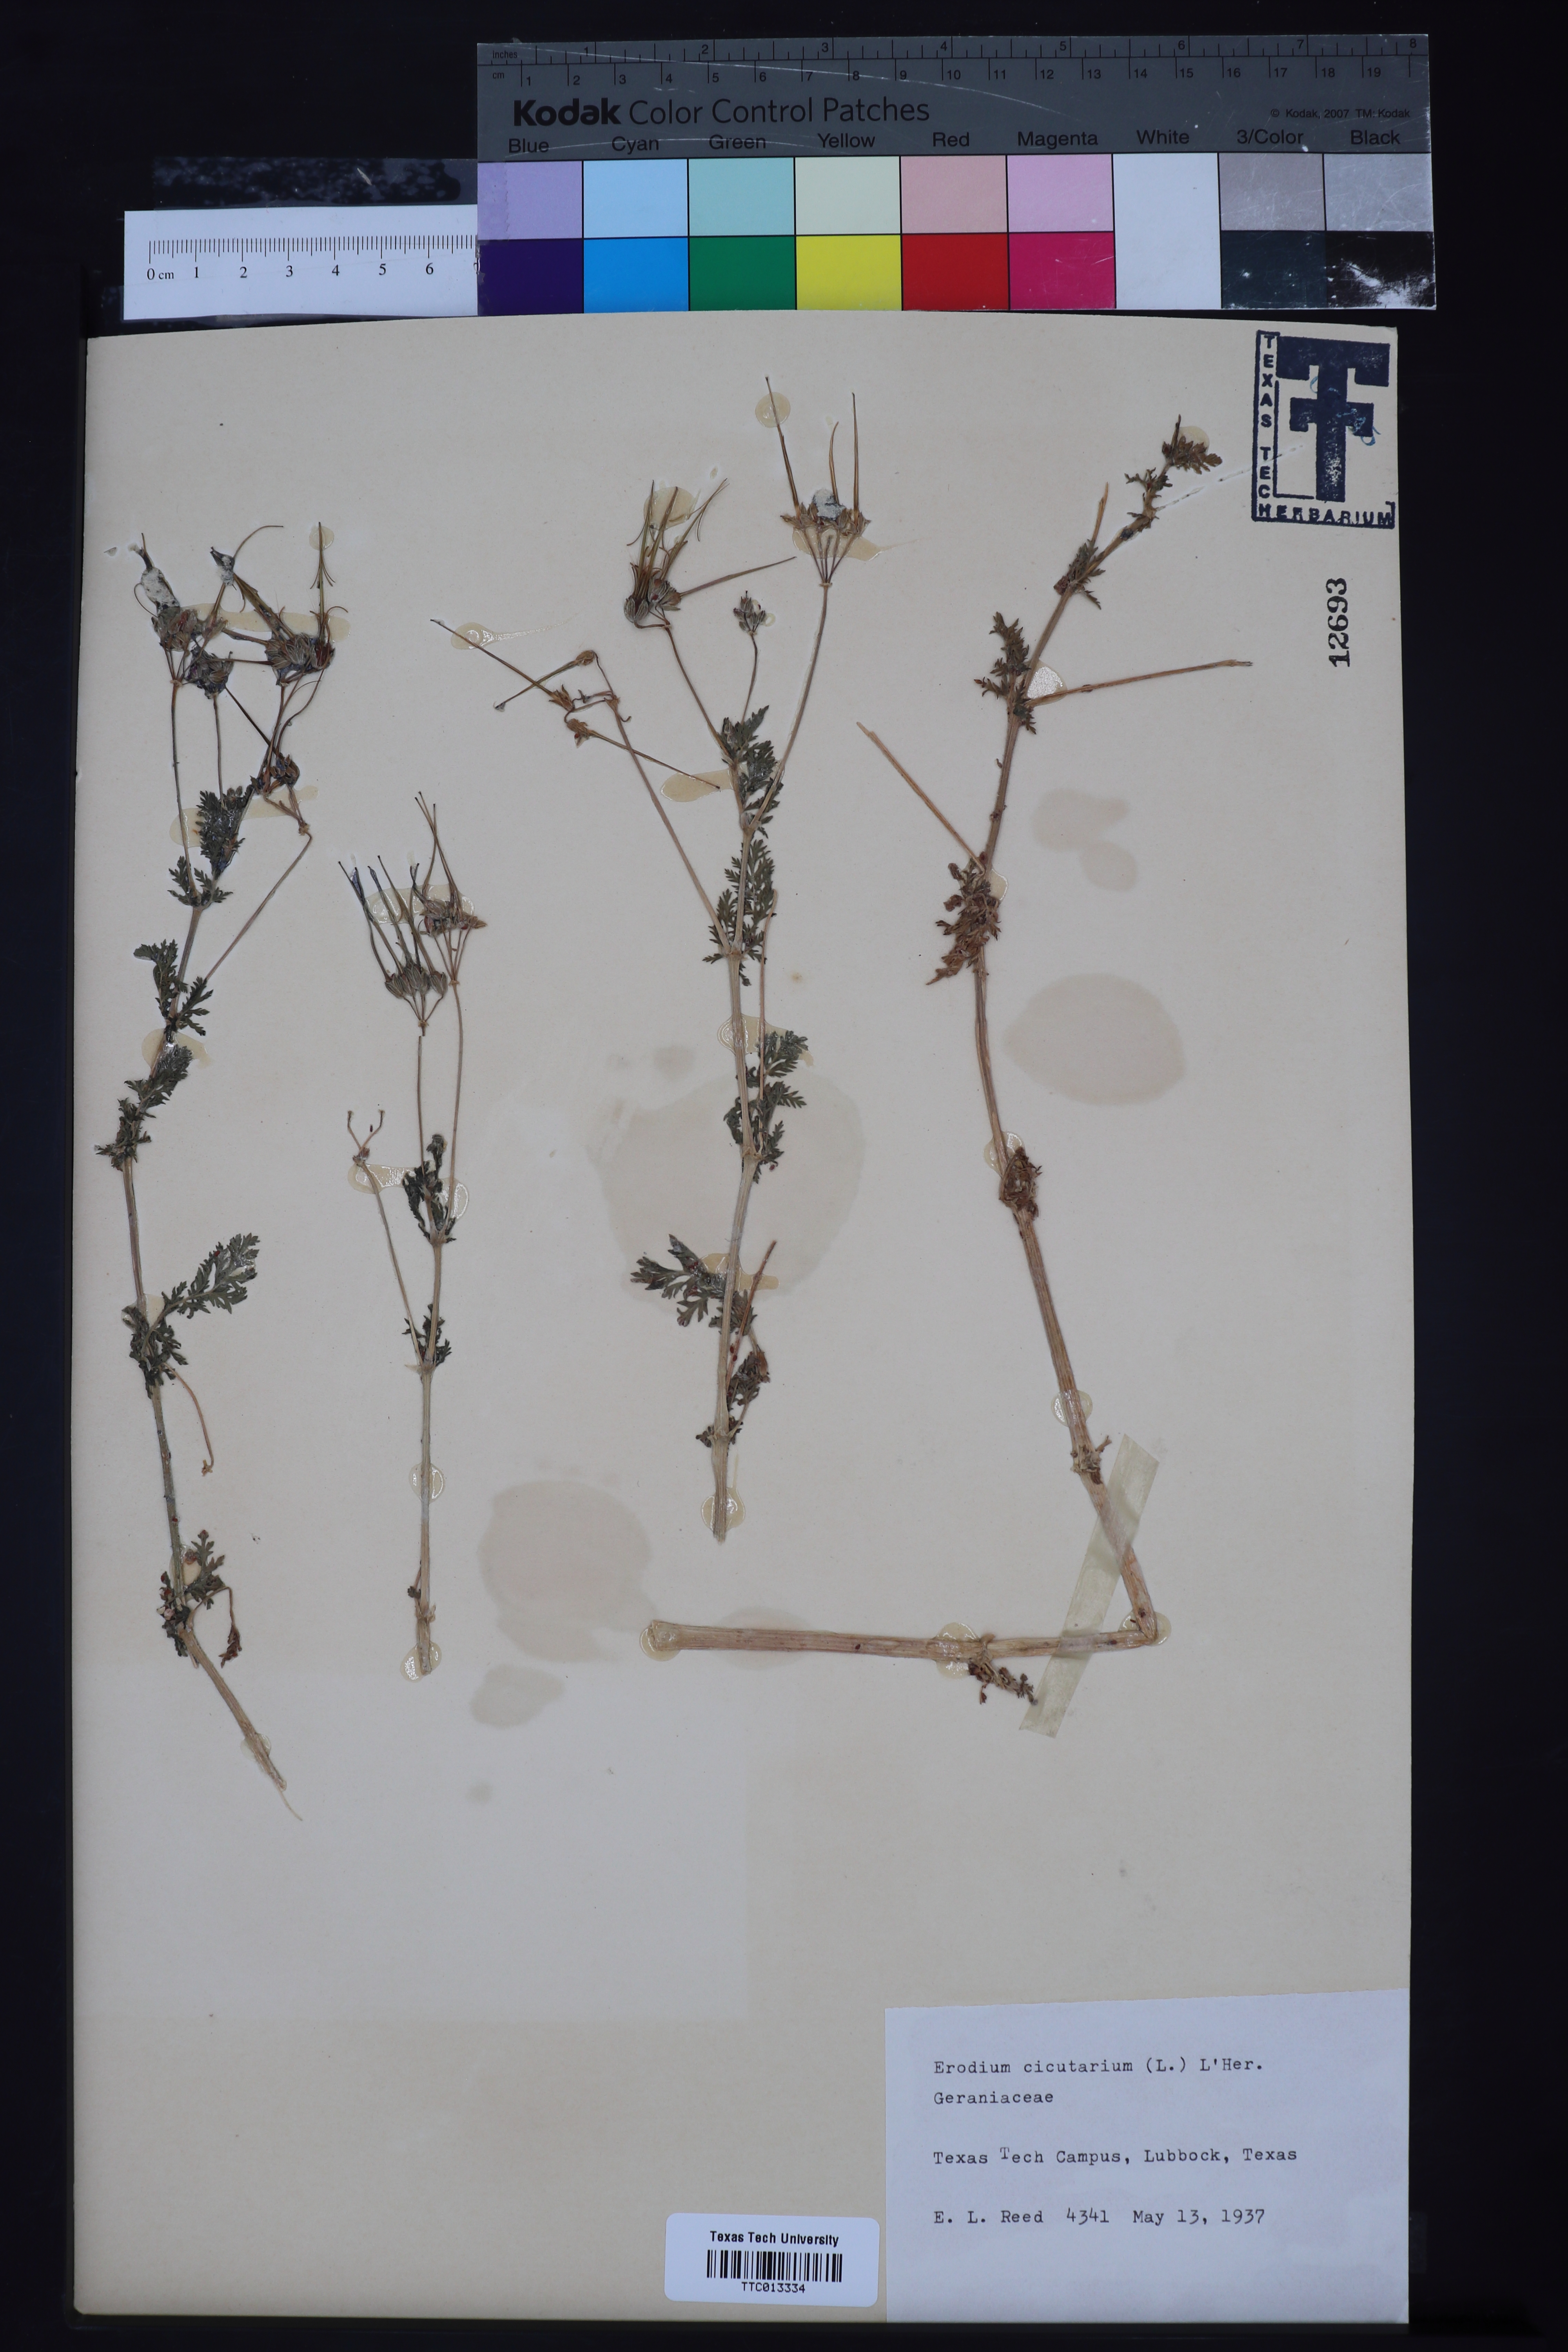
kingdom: Plantae
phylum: Tracheophyta
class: Magnoliopsida
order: Geraniales
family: Geraniaceae
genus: Erodium
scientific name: Erodium
